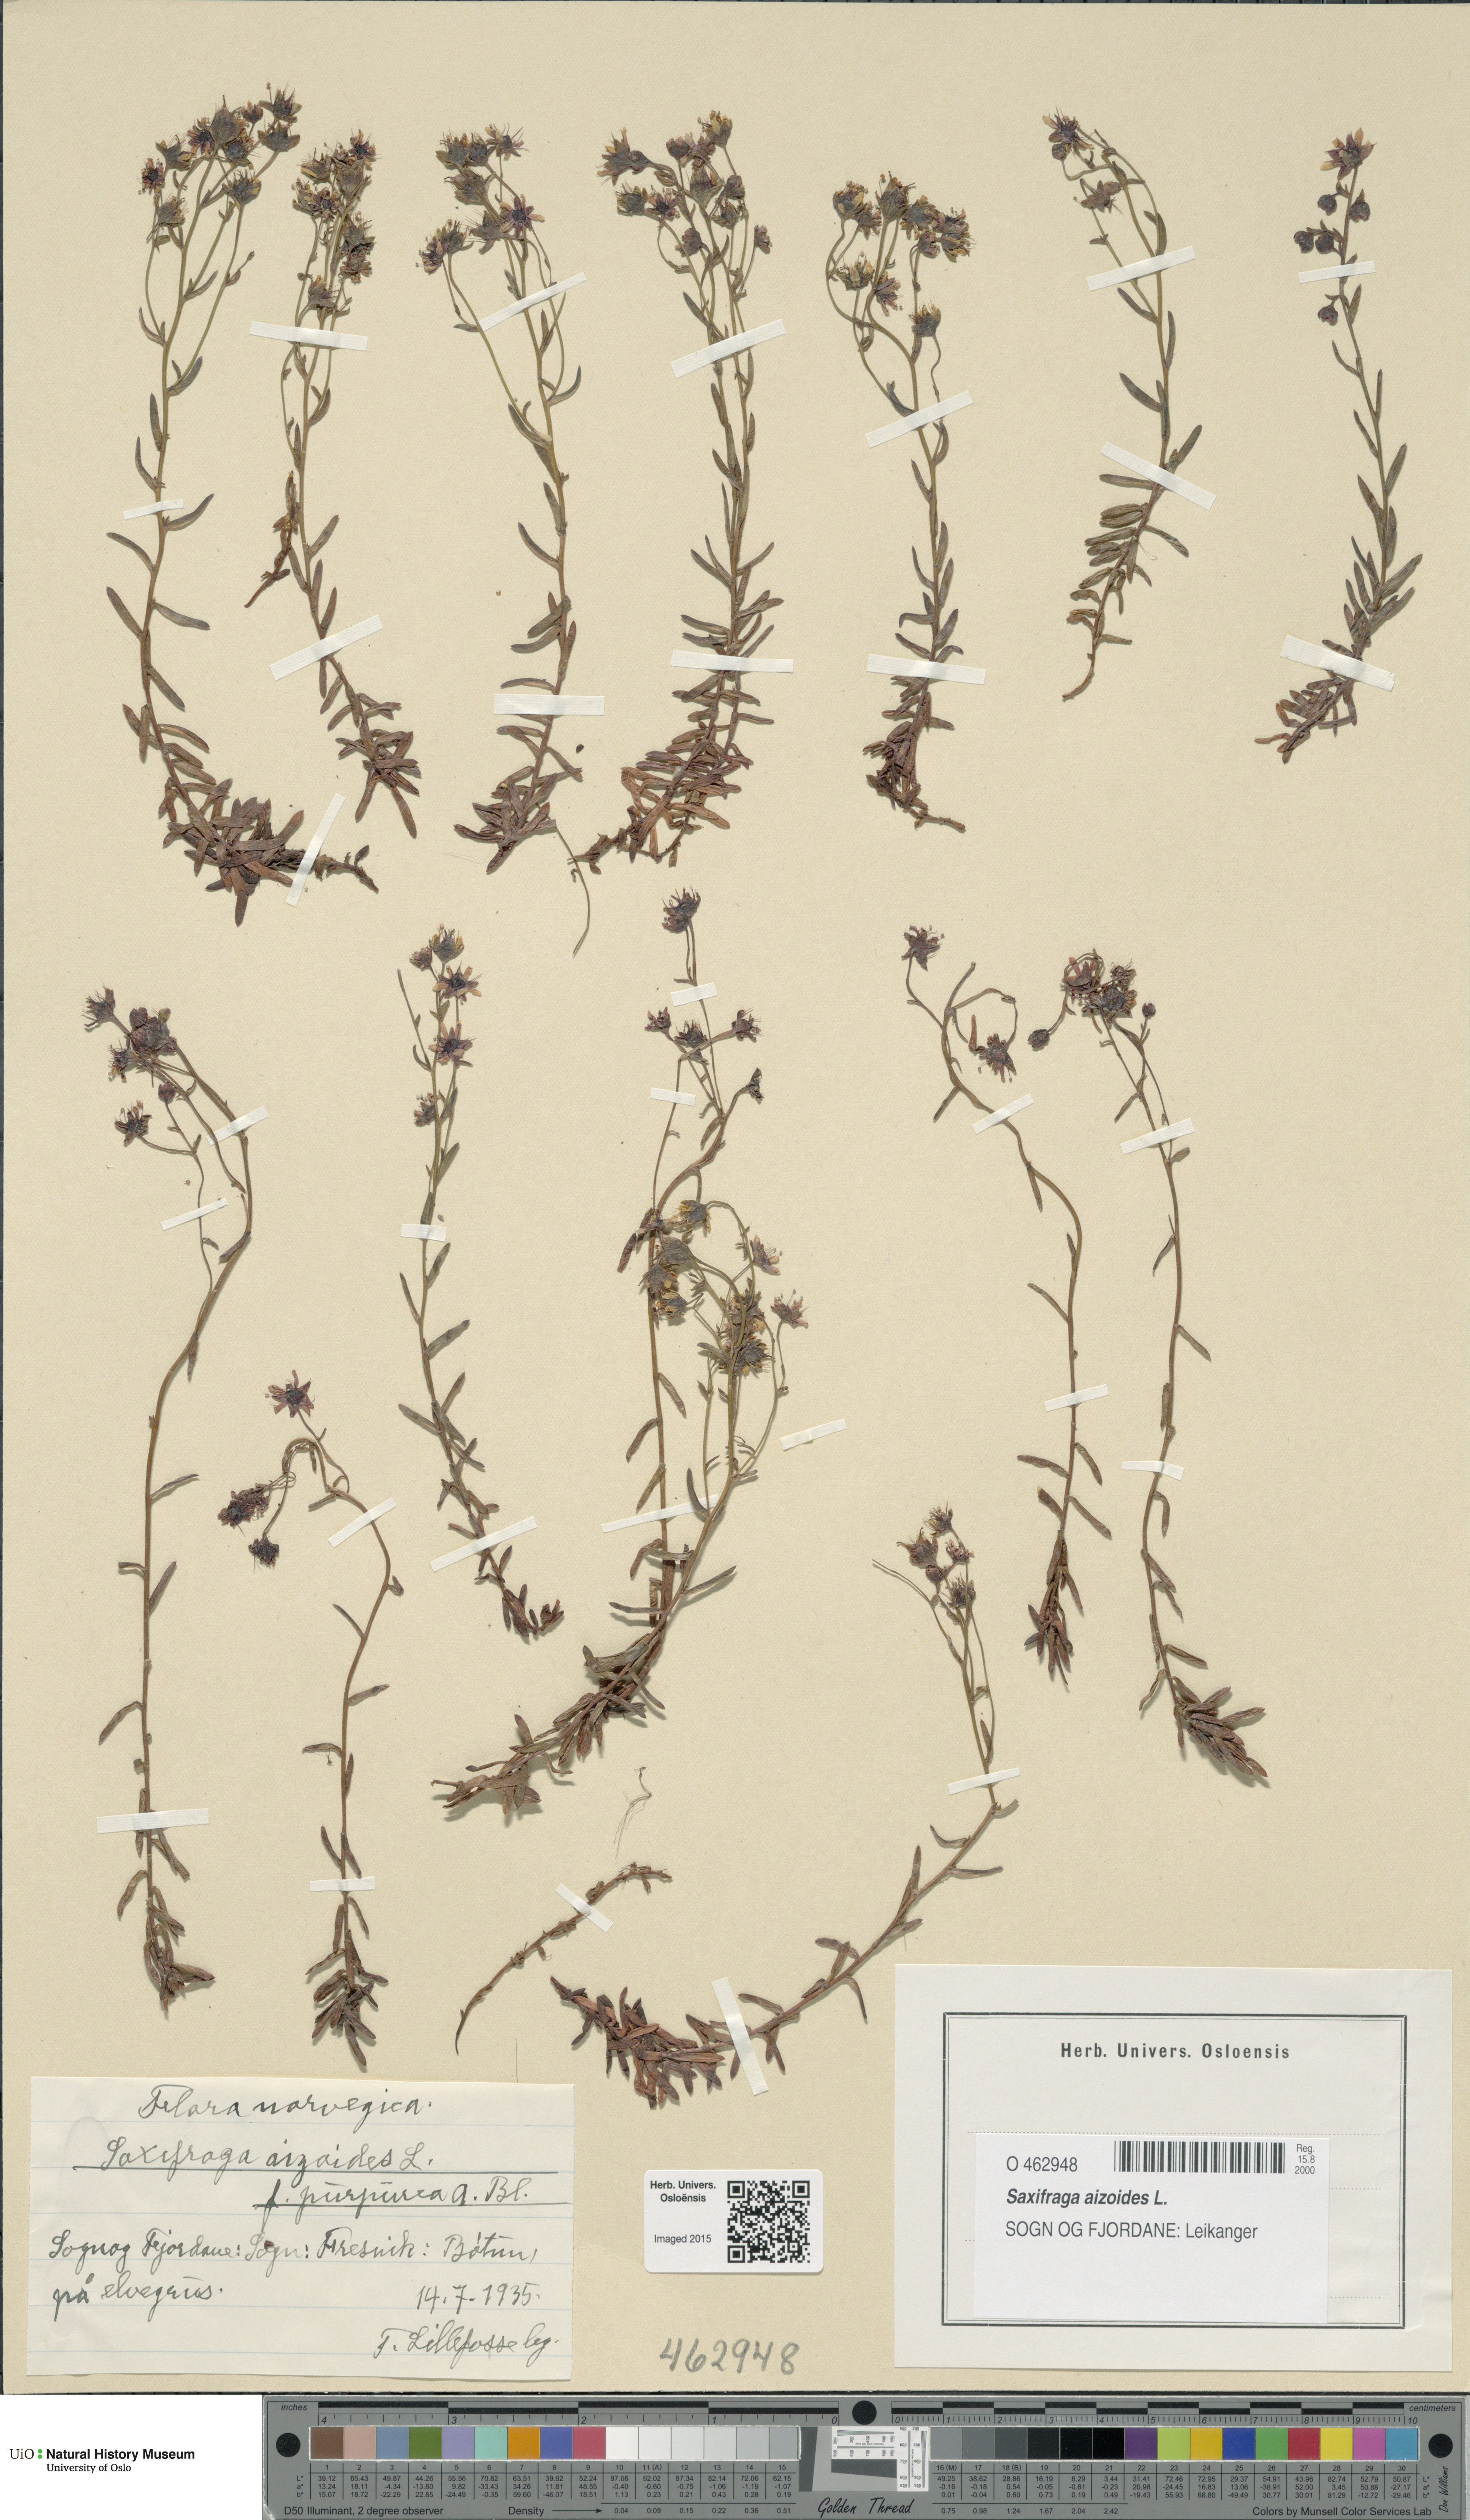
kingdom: Plantae
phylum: Tracheophyta
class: Magnoliopsida
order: Saxifragales
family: Saxifragaceae
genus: Saxifraga
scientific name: Saxifraga aizoides
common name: Yellow mountain saxifrage
